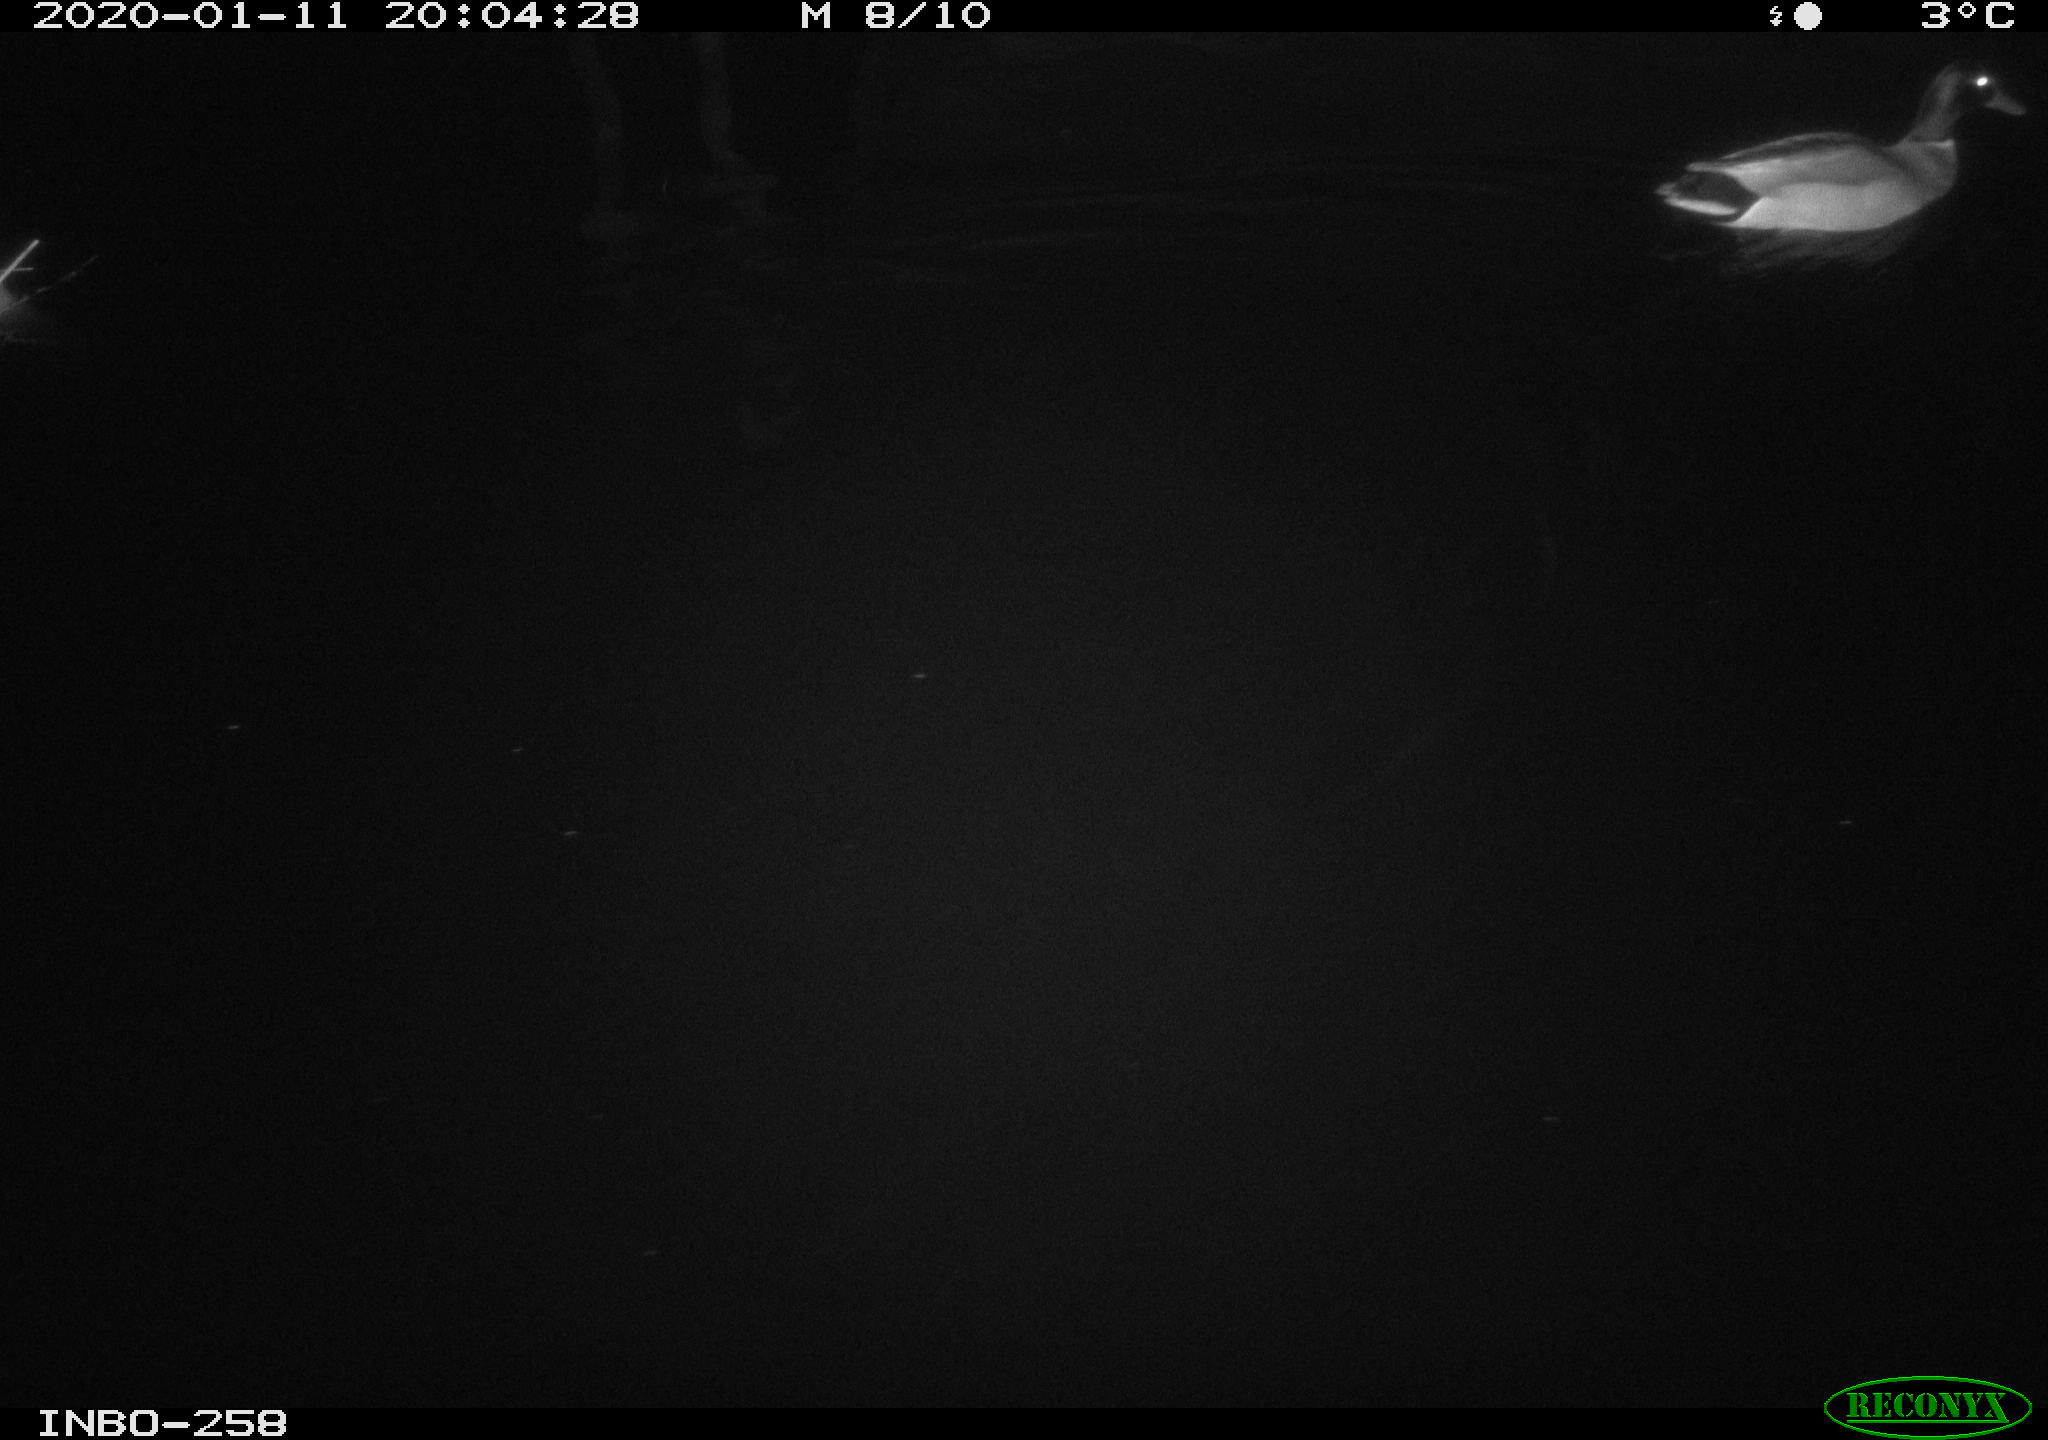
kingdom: Animalia
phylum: Chordata
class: Aves
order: Anseriformes
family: Anatidae
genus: Anas
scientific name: Anas platyrhynchos
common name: Mallard
